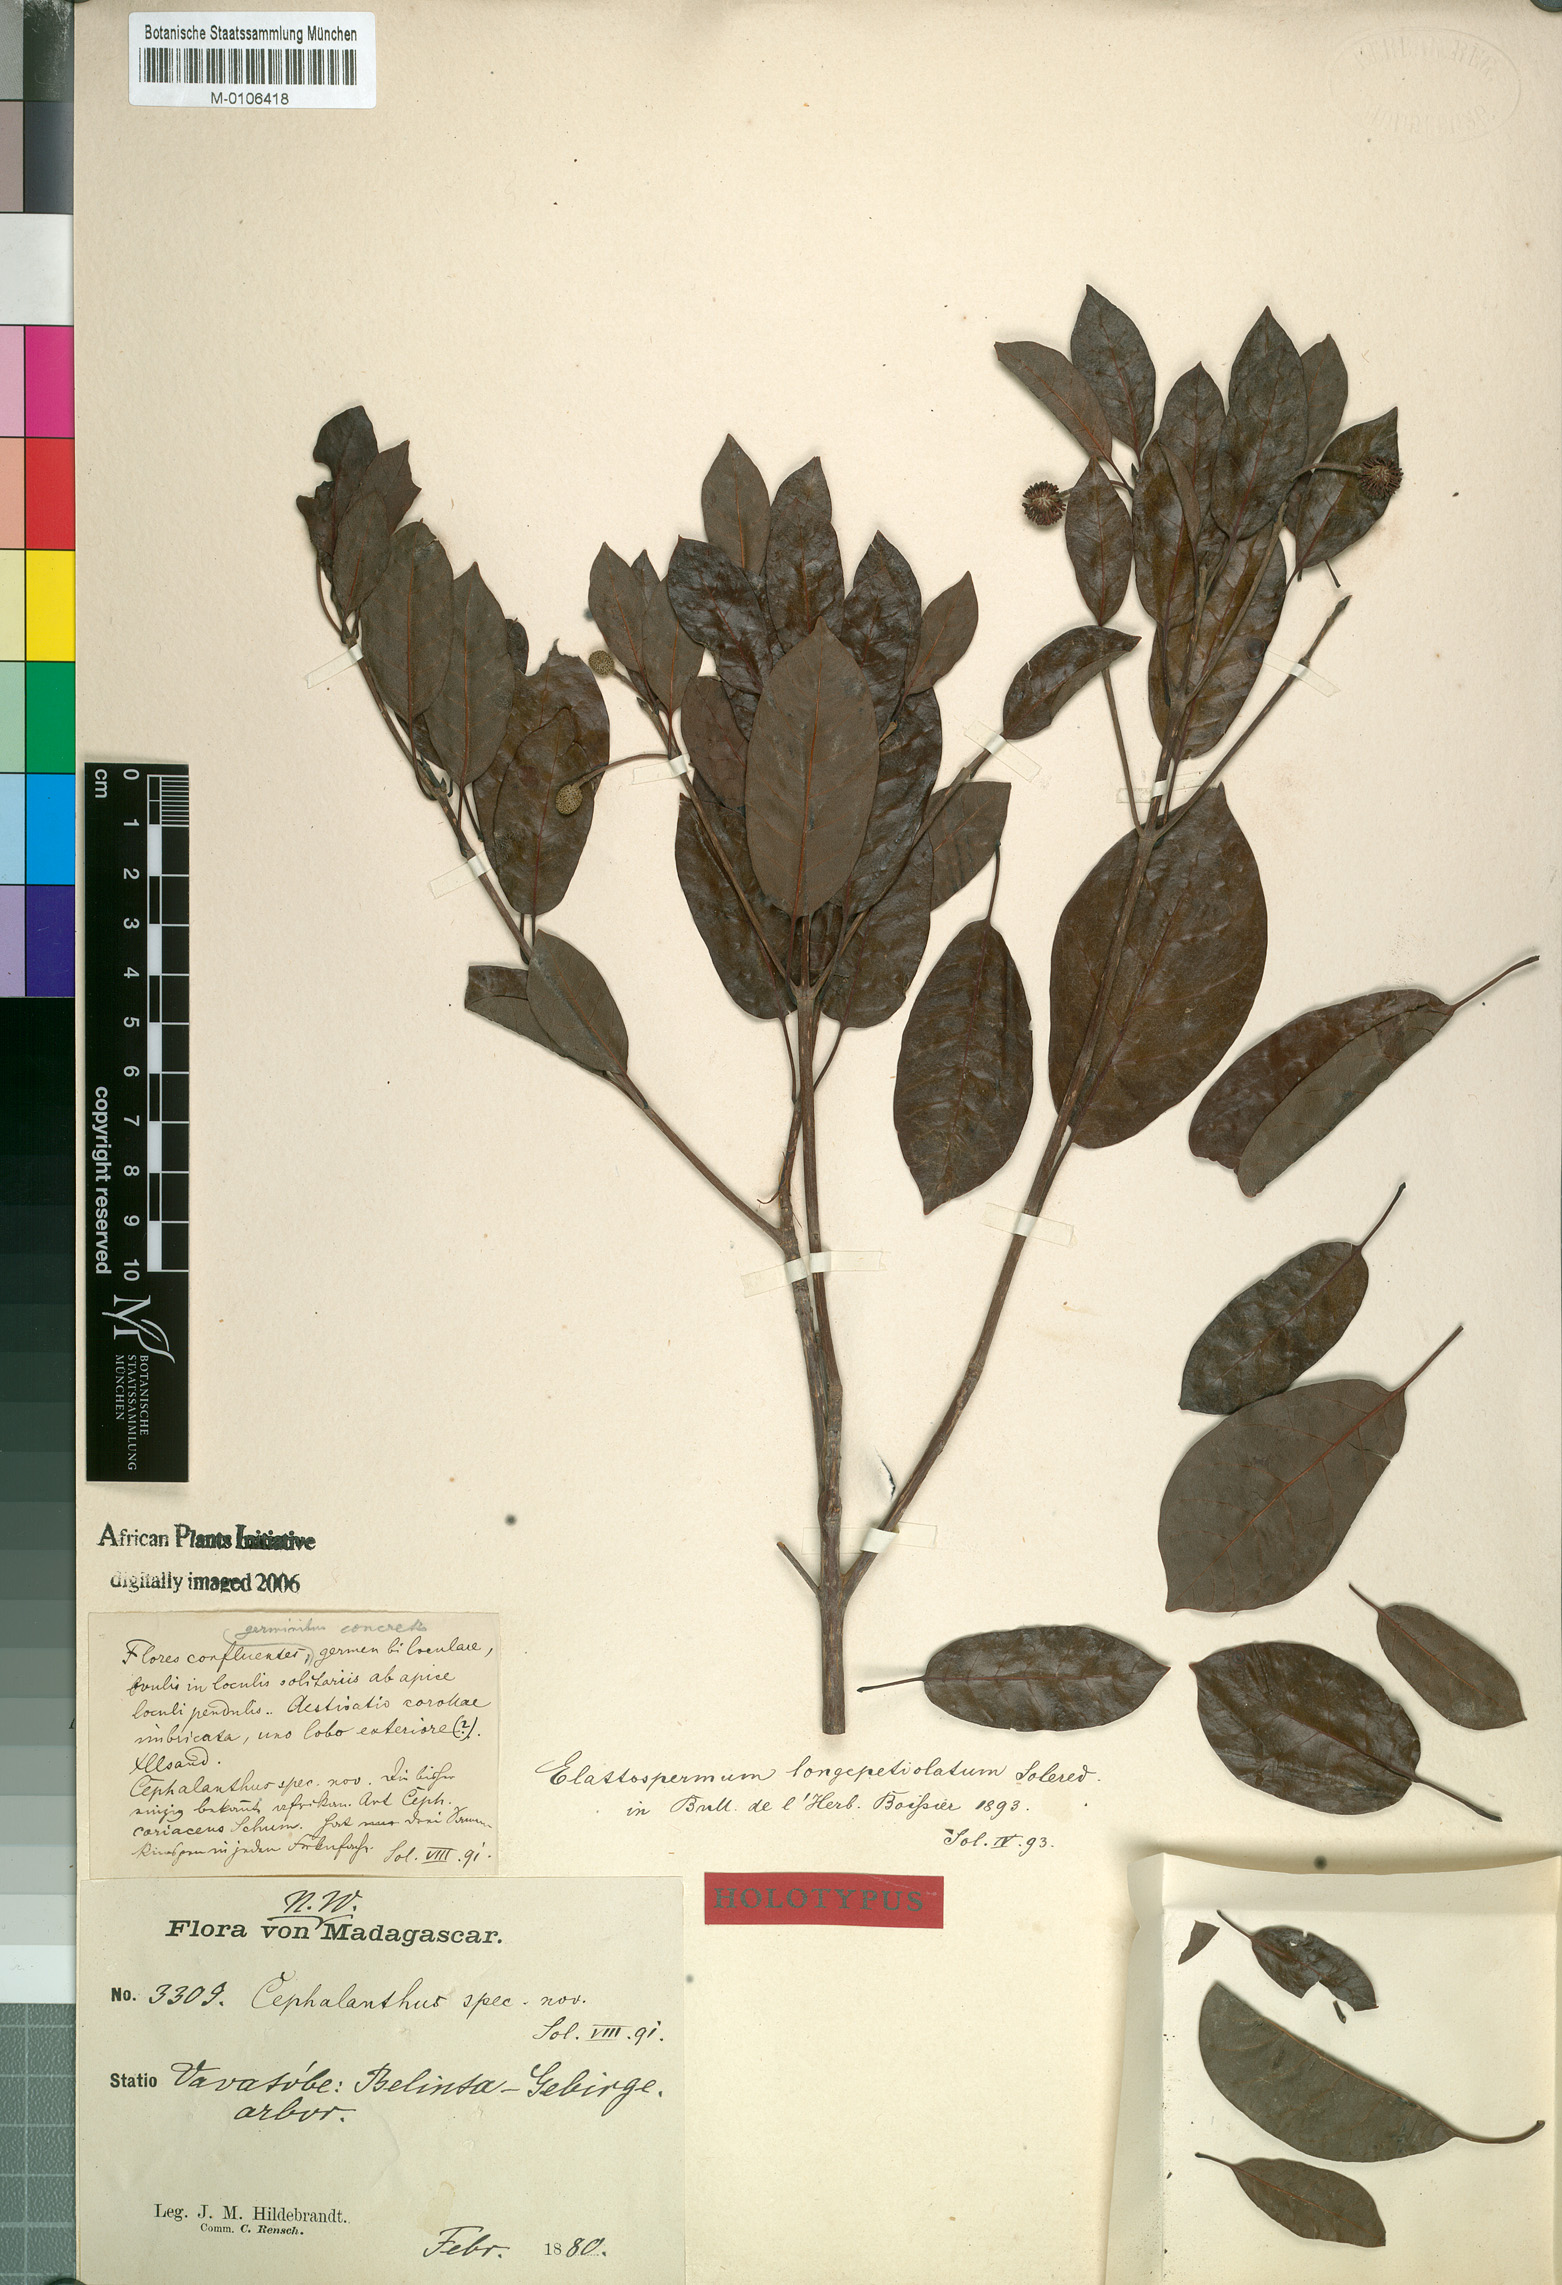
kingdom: Plantae
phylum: Tracheophyta
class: Magnoliopsida
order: Gentianales
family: Rubiaceae
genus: Breonia
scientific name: Breonia Elattospermum longepetiolatum
